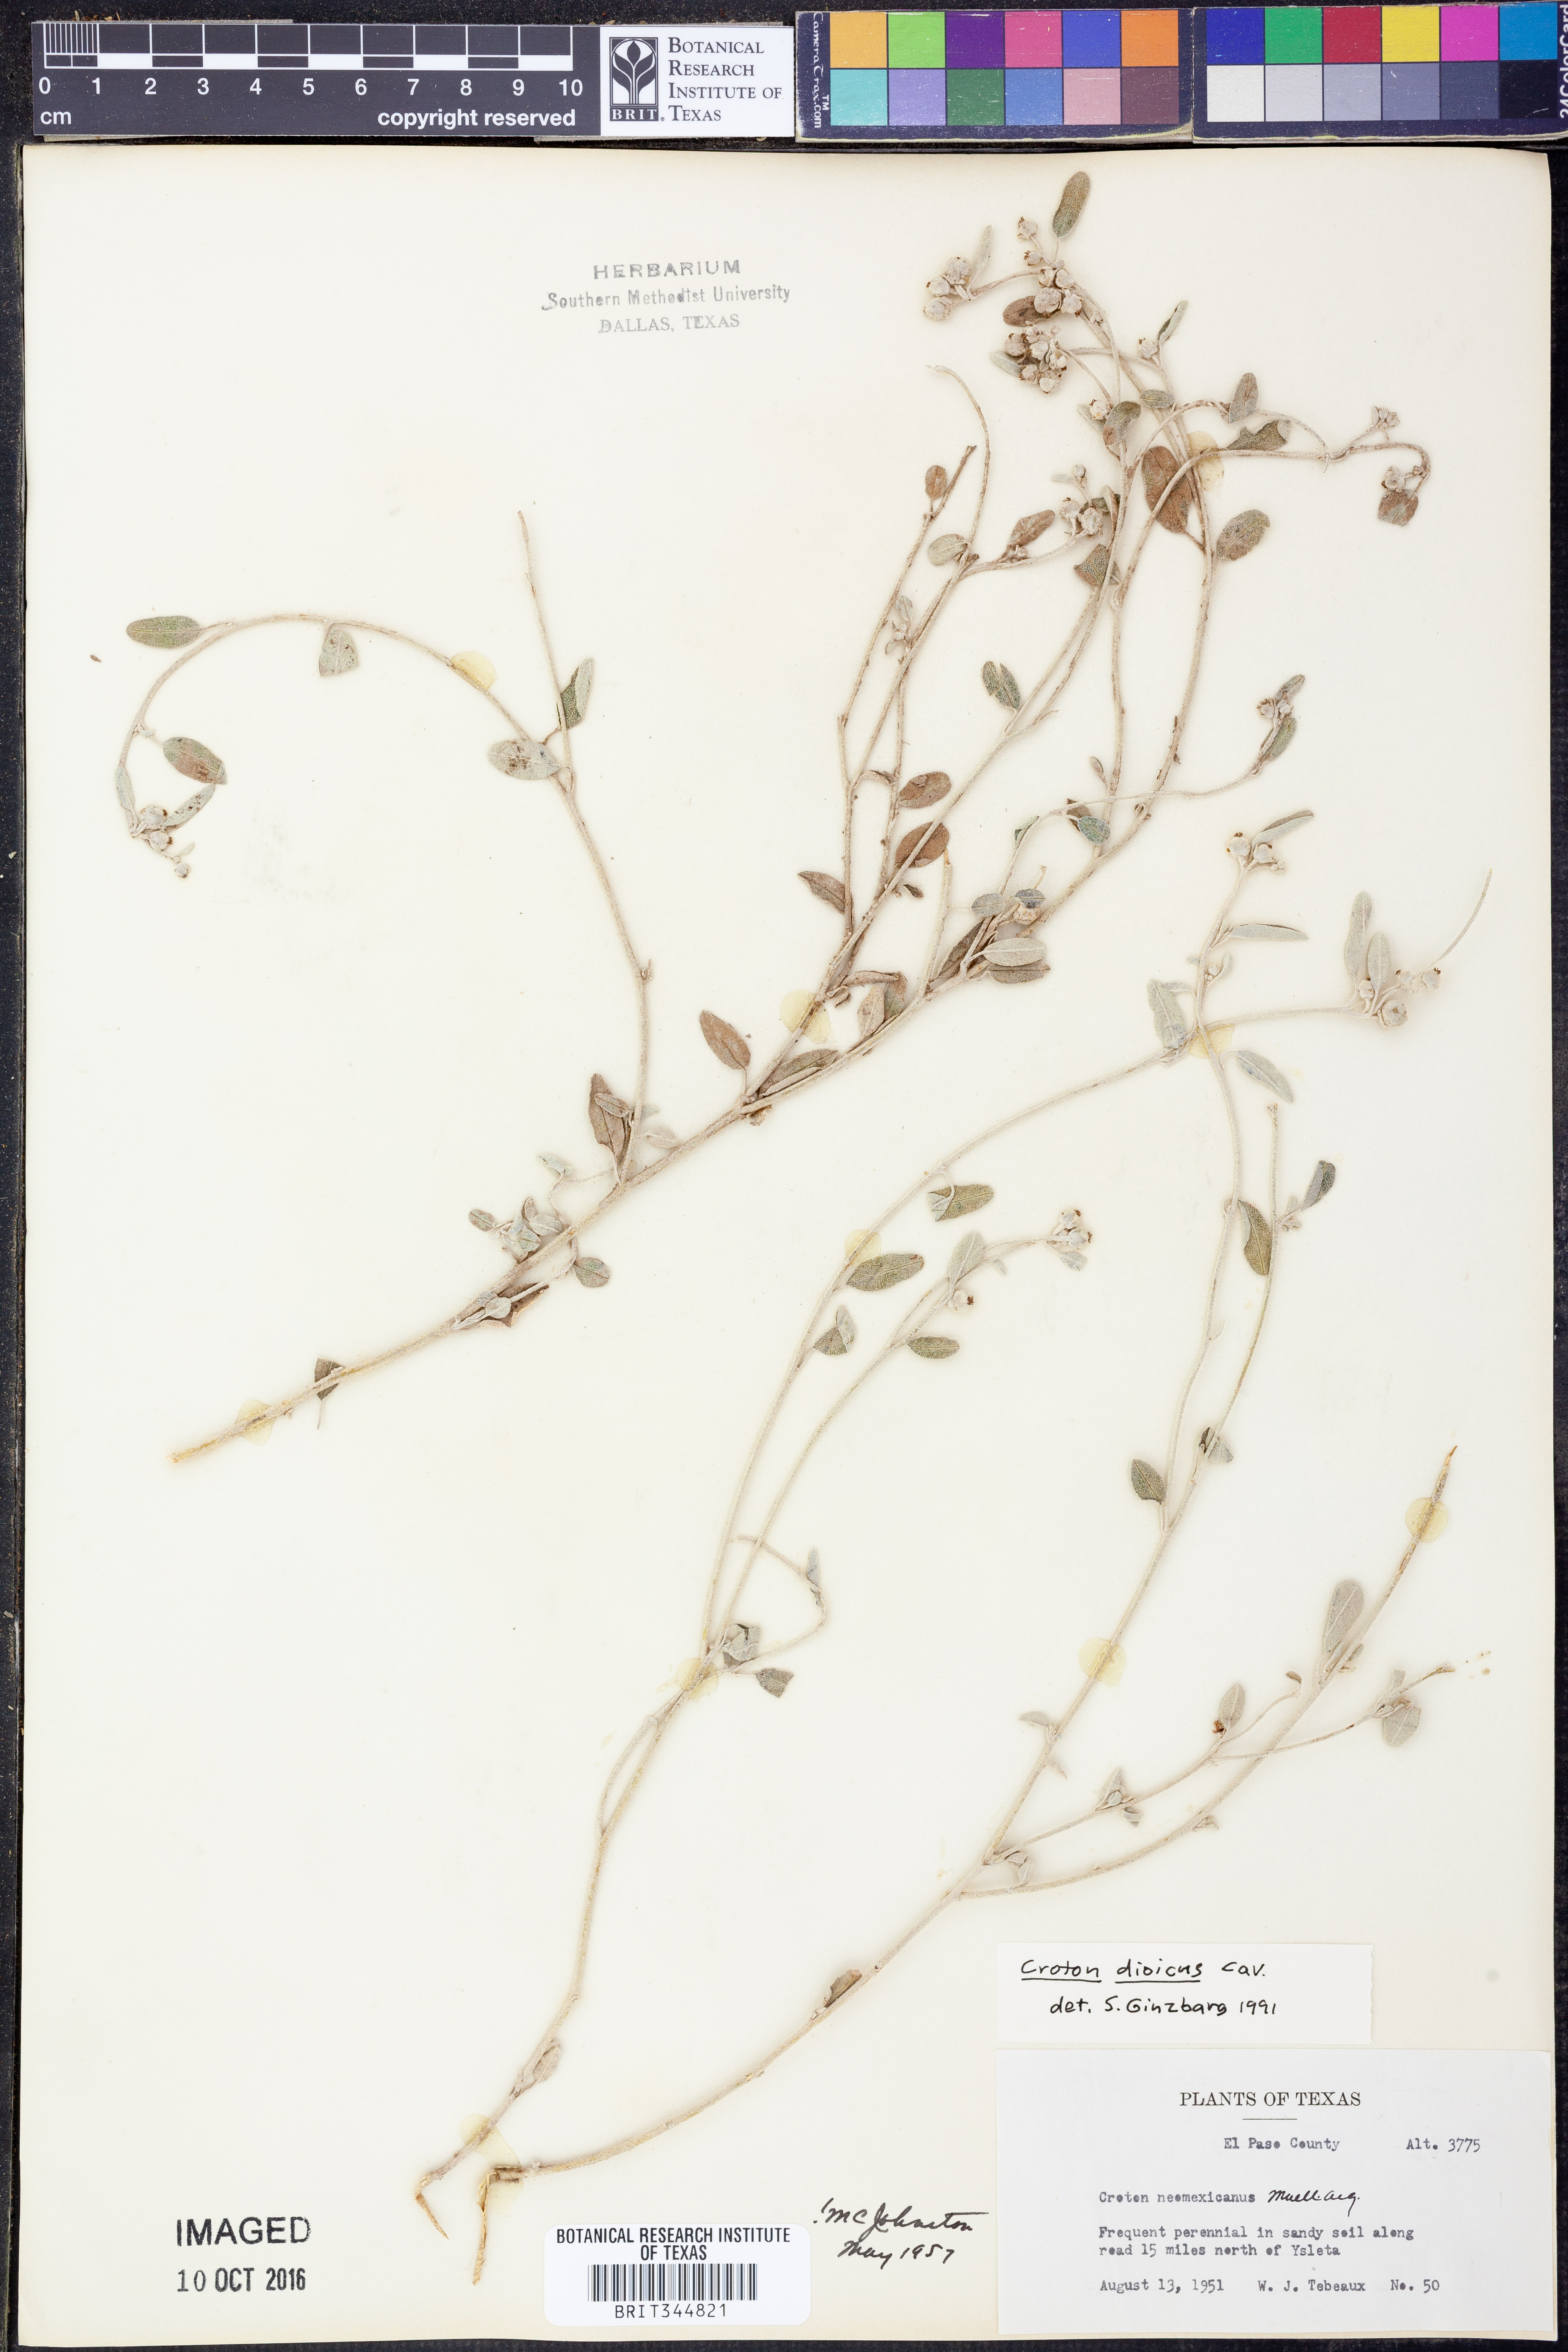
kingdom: Plantae
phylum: Tracheophyta
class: Magnoliopsida
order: Malpighiales
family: Euphorbiaceae
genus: Croton
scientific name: Croton dioicus
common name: Grassland croton
